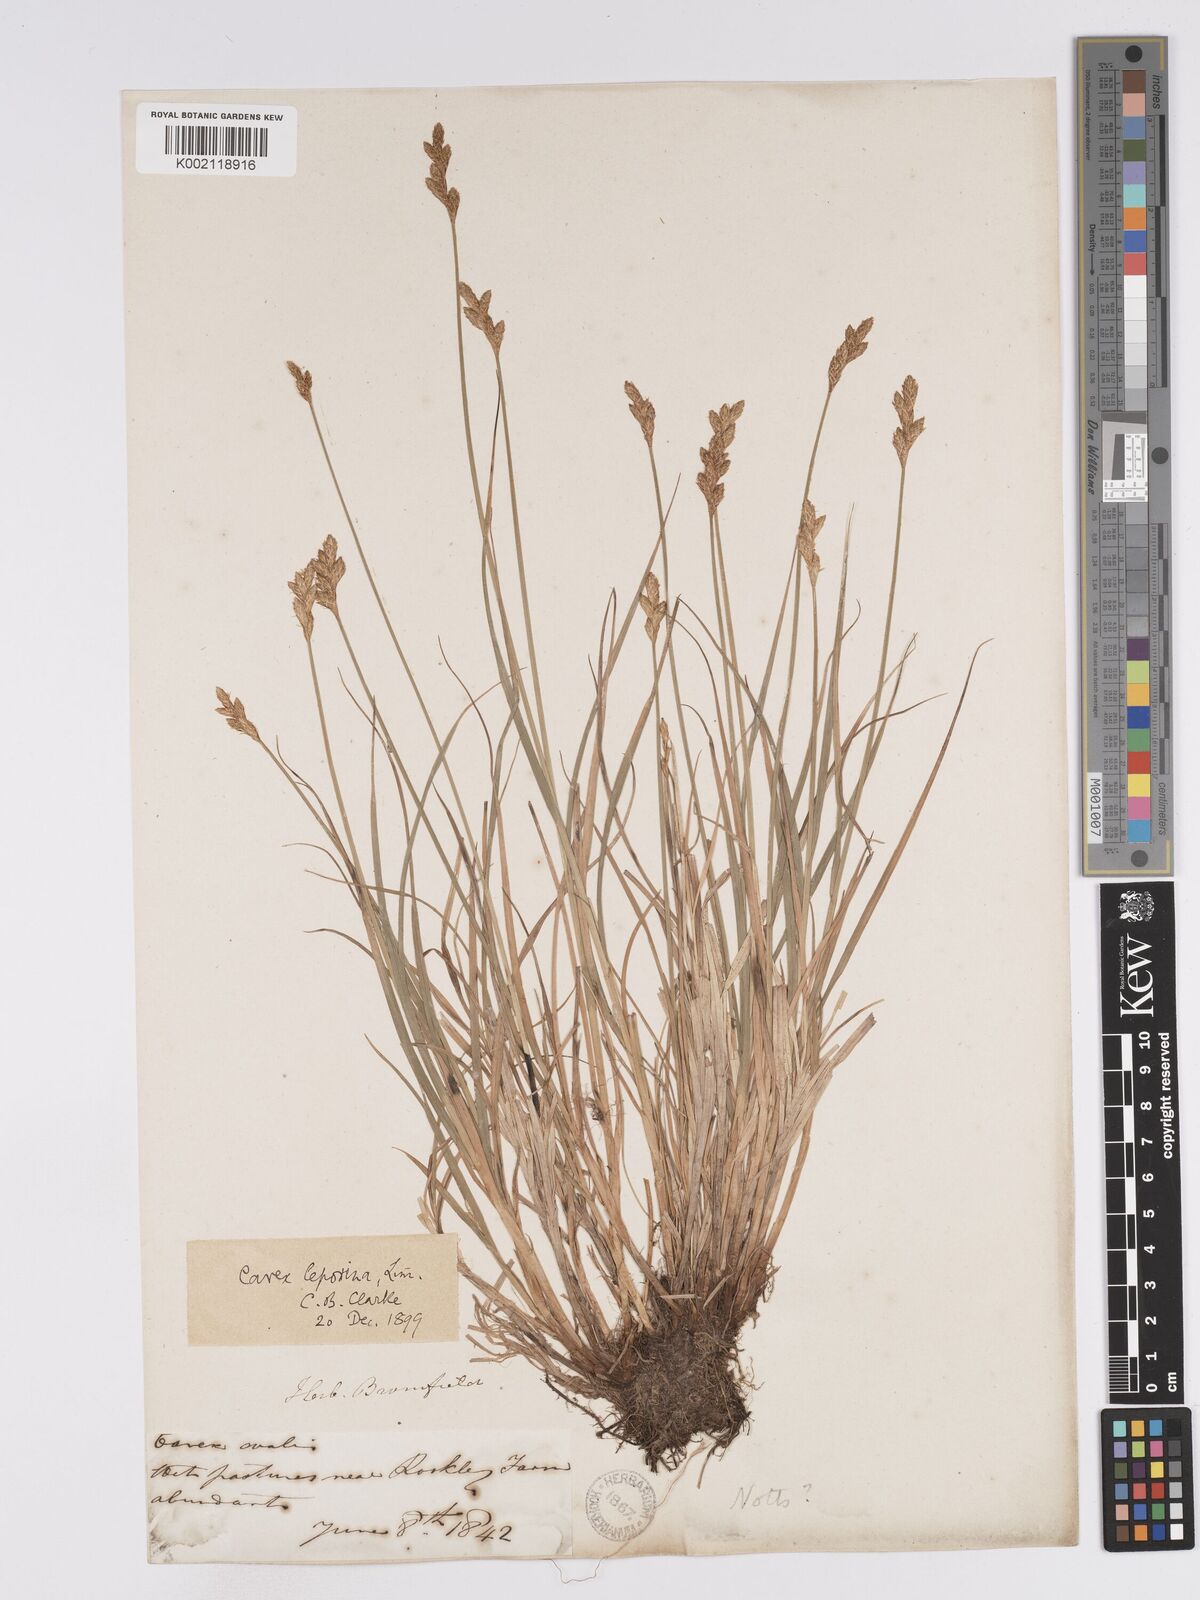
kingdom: Plantae
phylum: Tracheophyta
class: Liliopsida
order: Poales
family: Cyperaceae
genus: Carex
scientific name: Carex leporina
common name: Oval sedge
